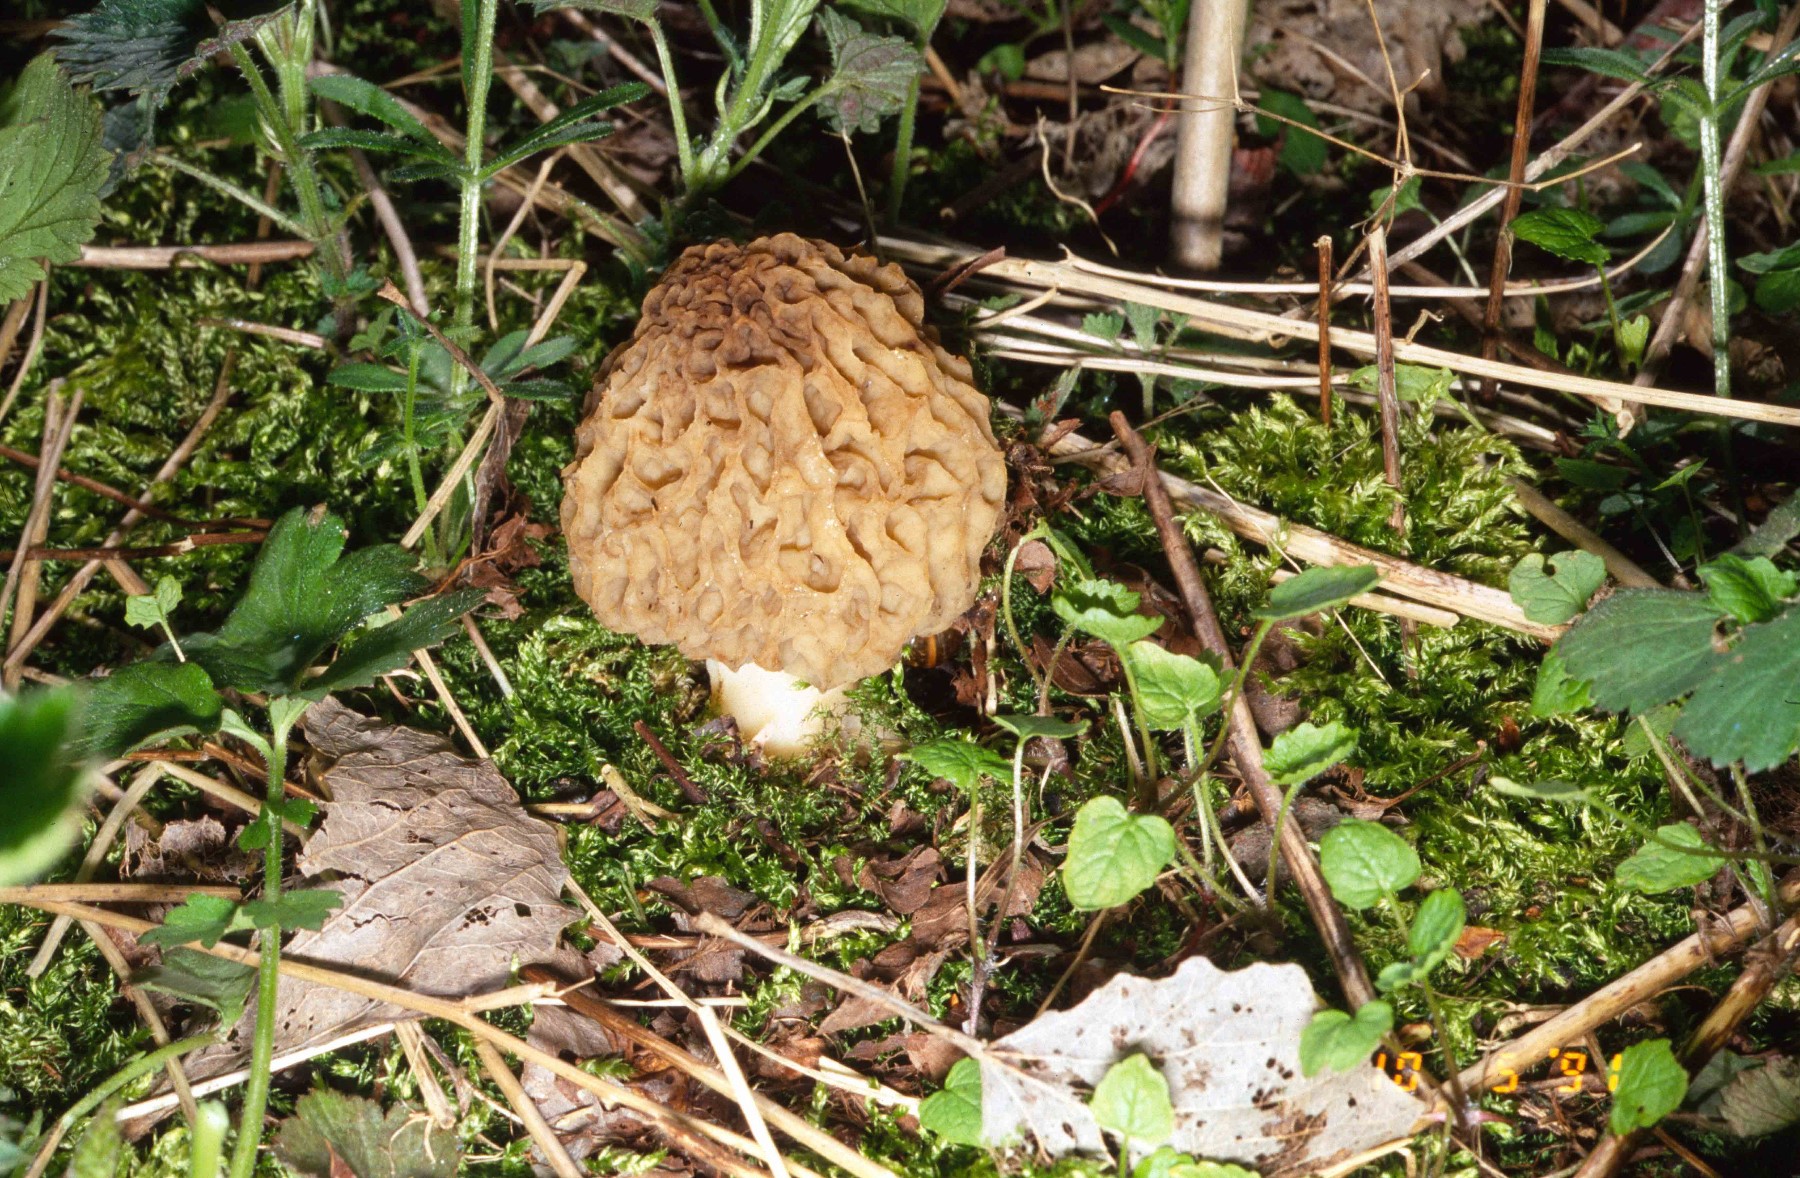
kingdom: Fungi
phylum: Ascomycota
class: Pezizomycetes
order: Pezizales
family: Morchellaceae
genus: Morchella
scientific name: Morchella esculenta
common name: spiselig morkel
